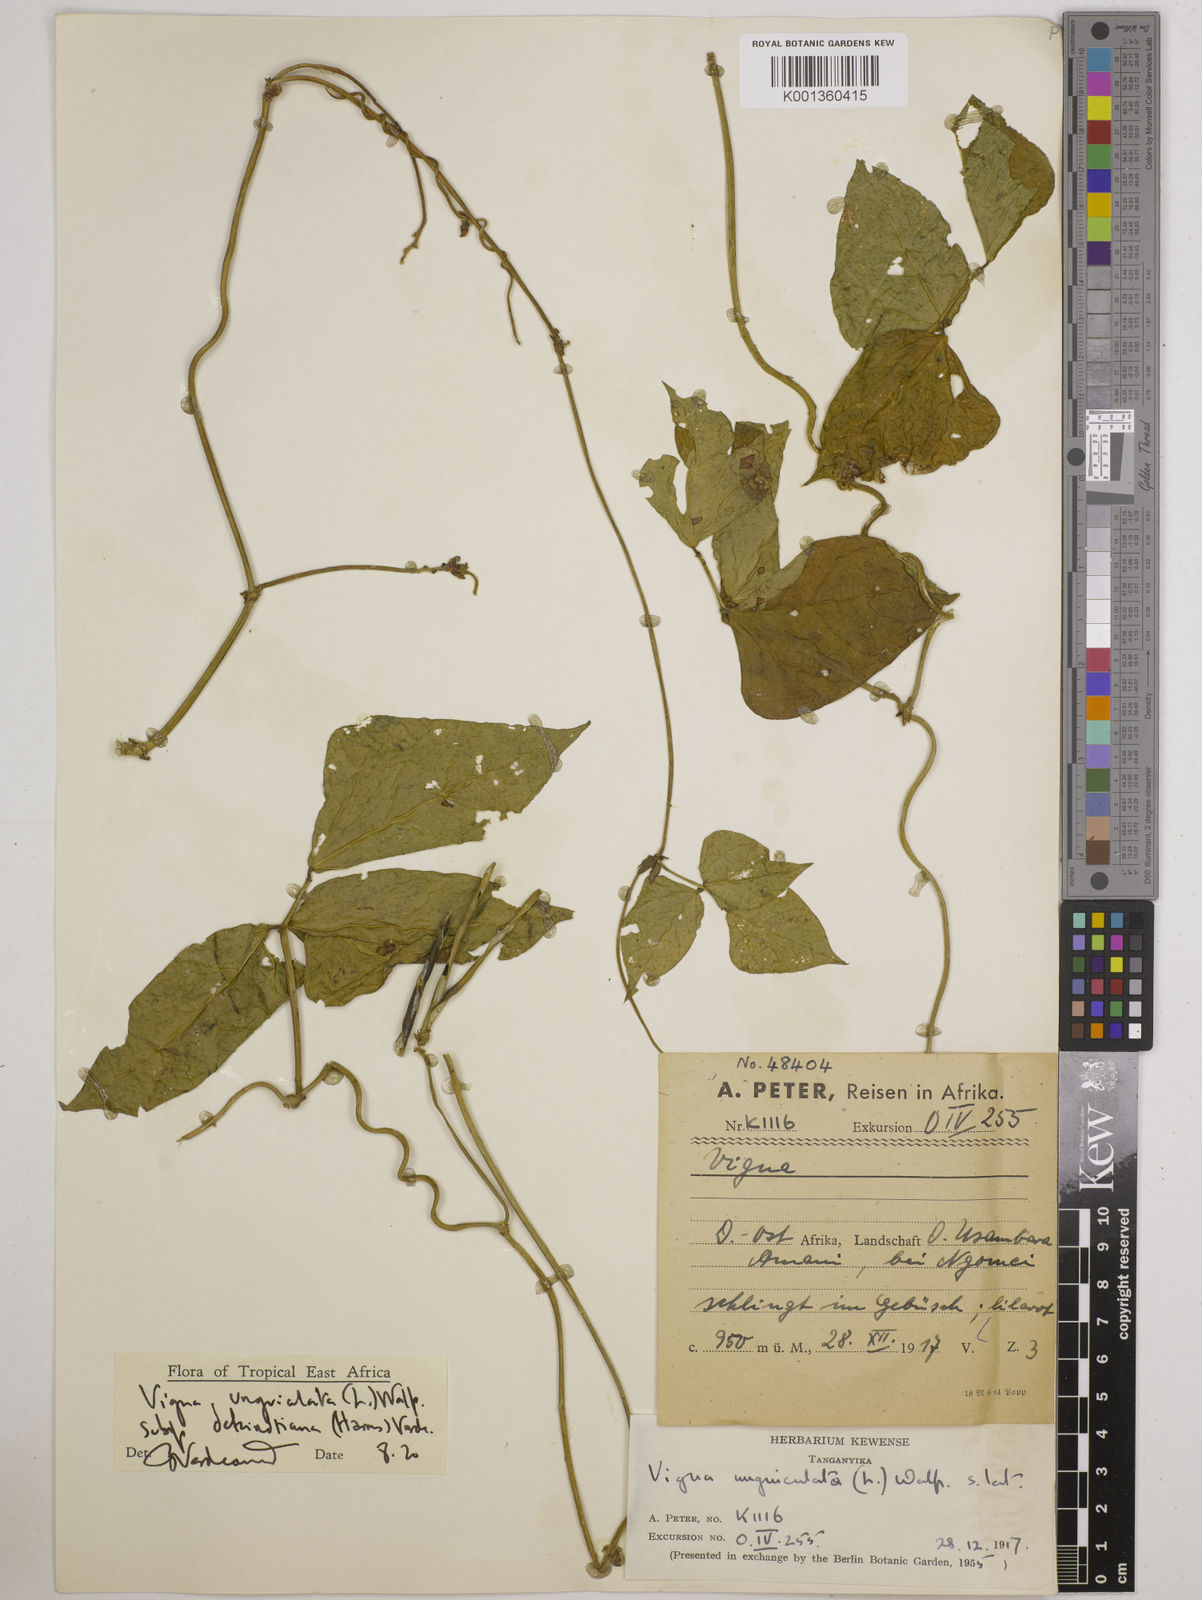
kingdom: Plantae
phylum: Tracheophyta
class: Magnoliopsida
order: Fabales
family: Fabaceae
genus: Vigna
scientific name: Vigna
